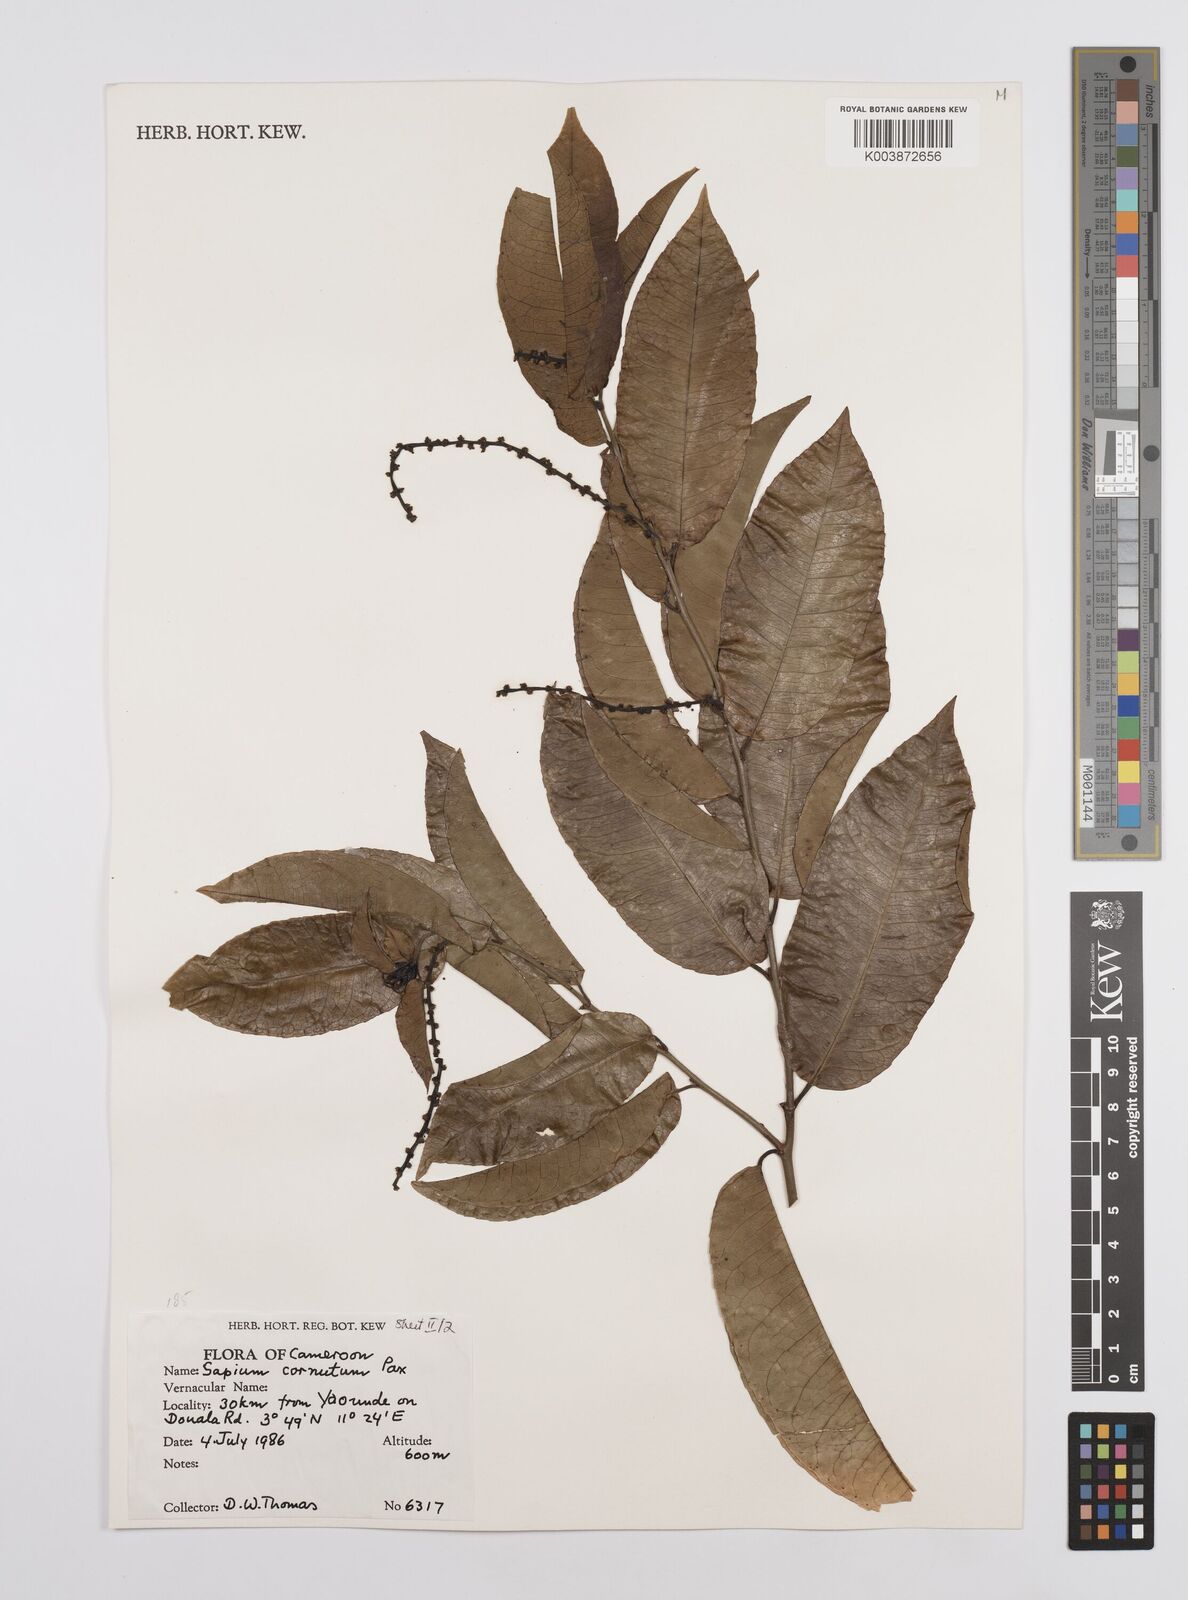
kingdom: Plantae
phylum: Tracheophyta
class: Magnoliopsida
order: Malpighiales
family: Euphorbiaceae
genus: Sclerocroton
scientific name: Sclerocroton cornutus
